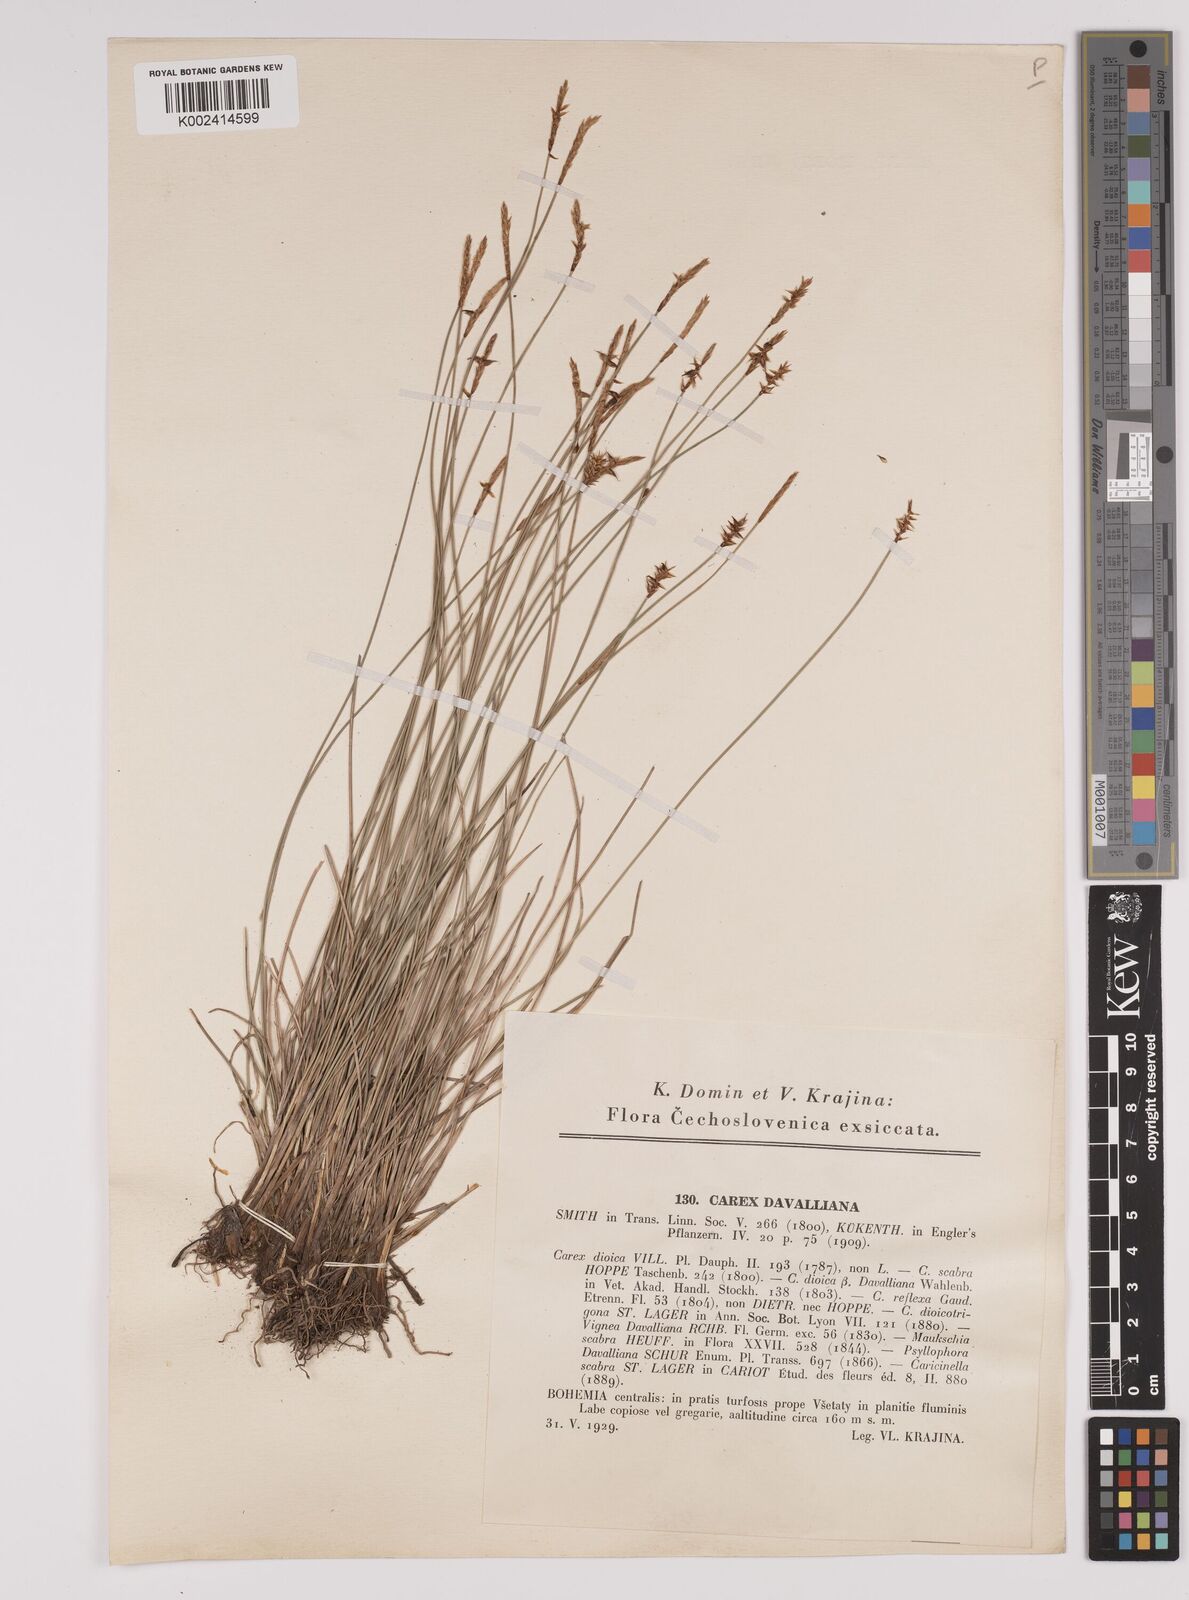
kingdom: Plantae
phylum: Tracheophyta
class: Liliopsida
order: Poales
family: Cyperaceae
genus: Carex
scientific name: Carex davalliana
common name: Davall's sedge
